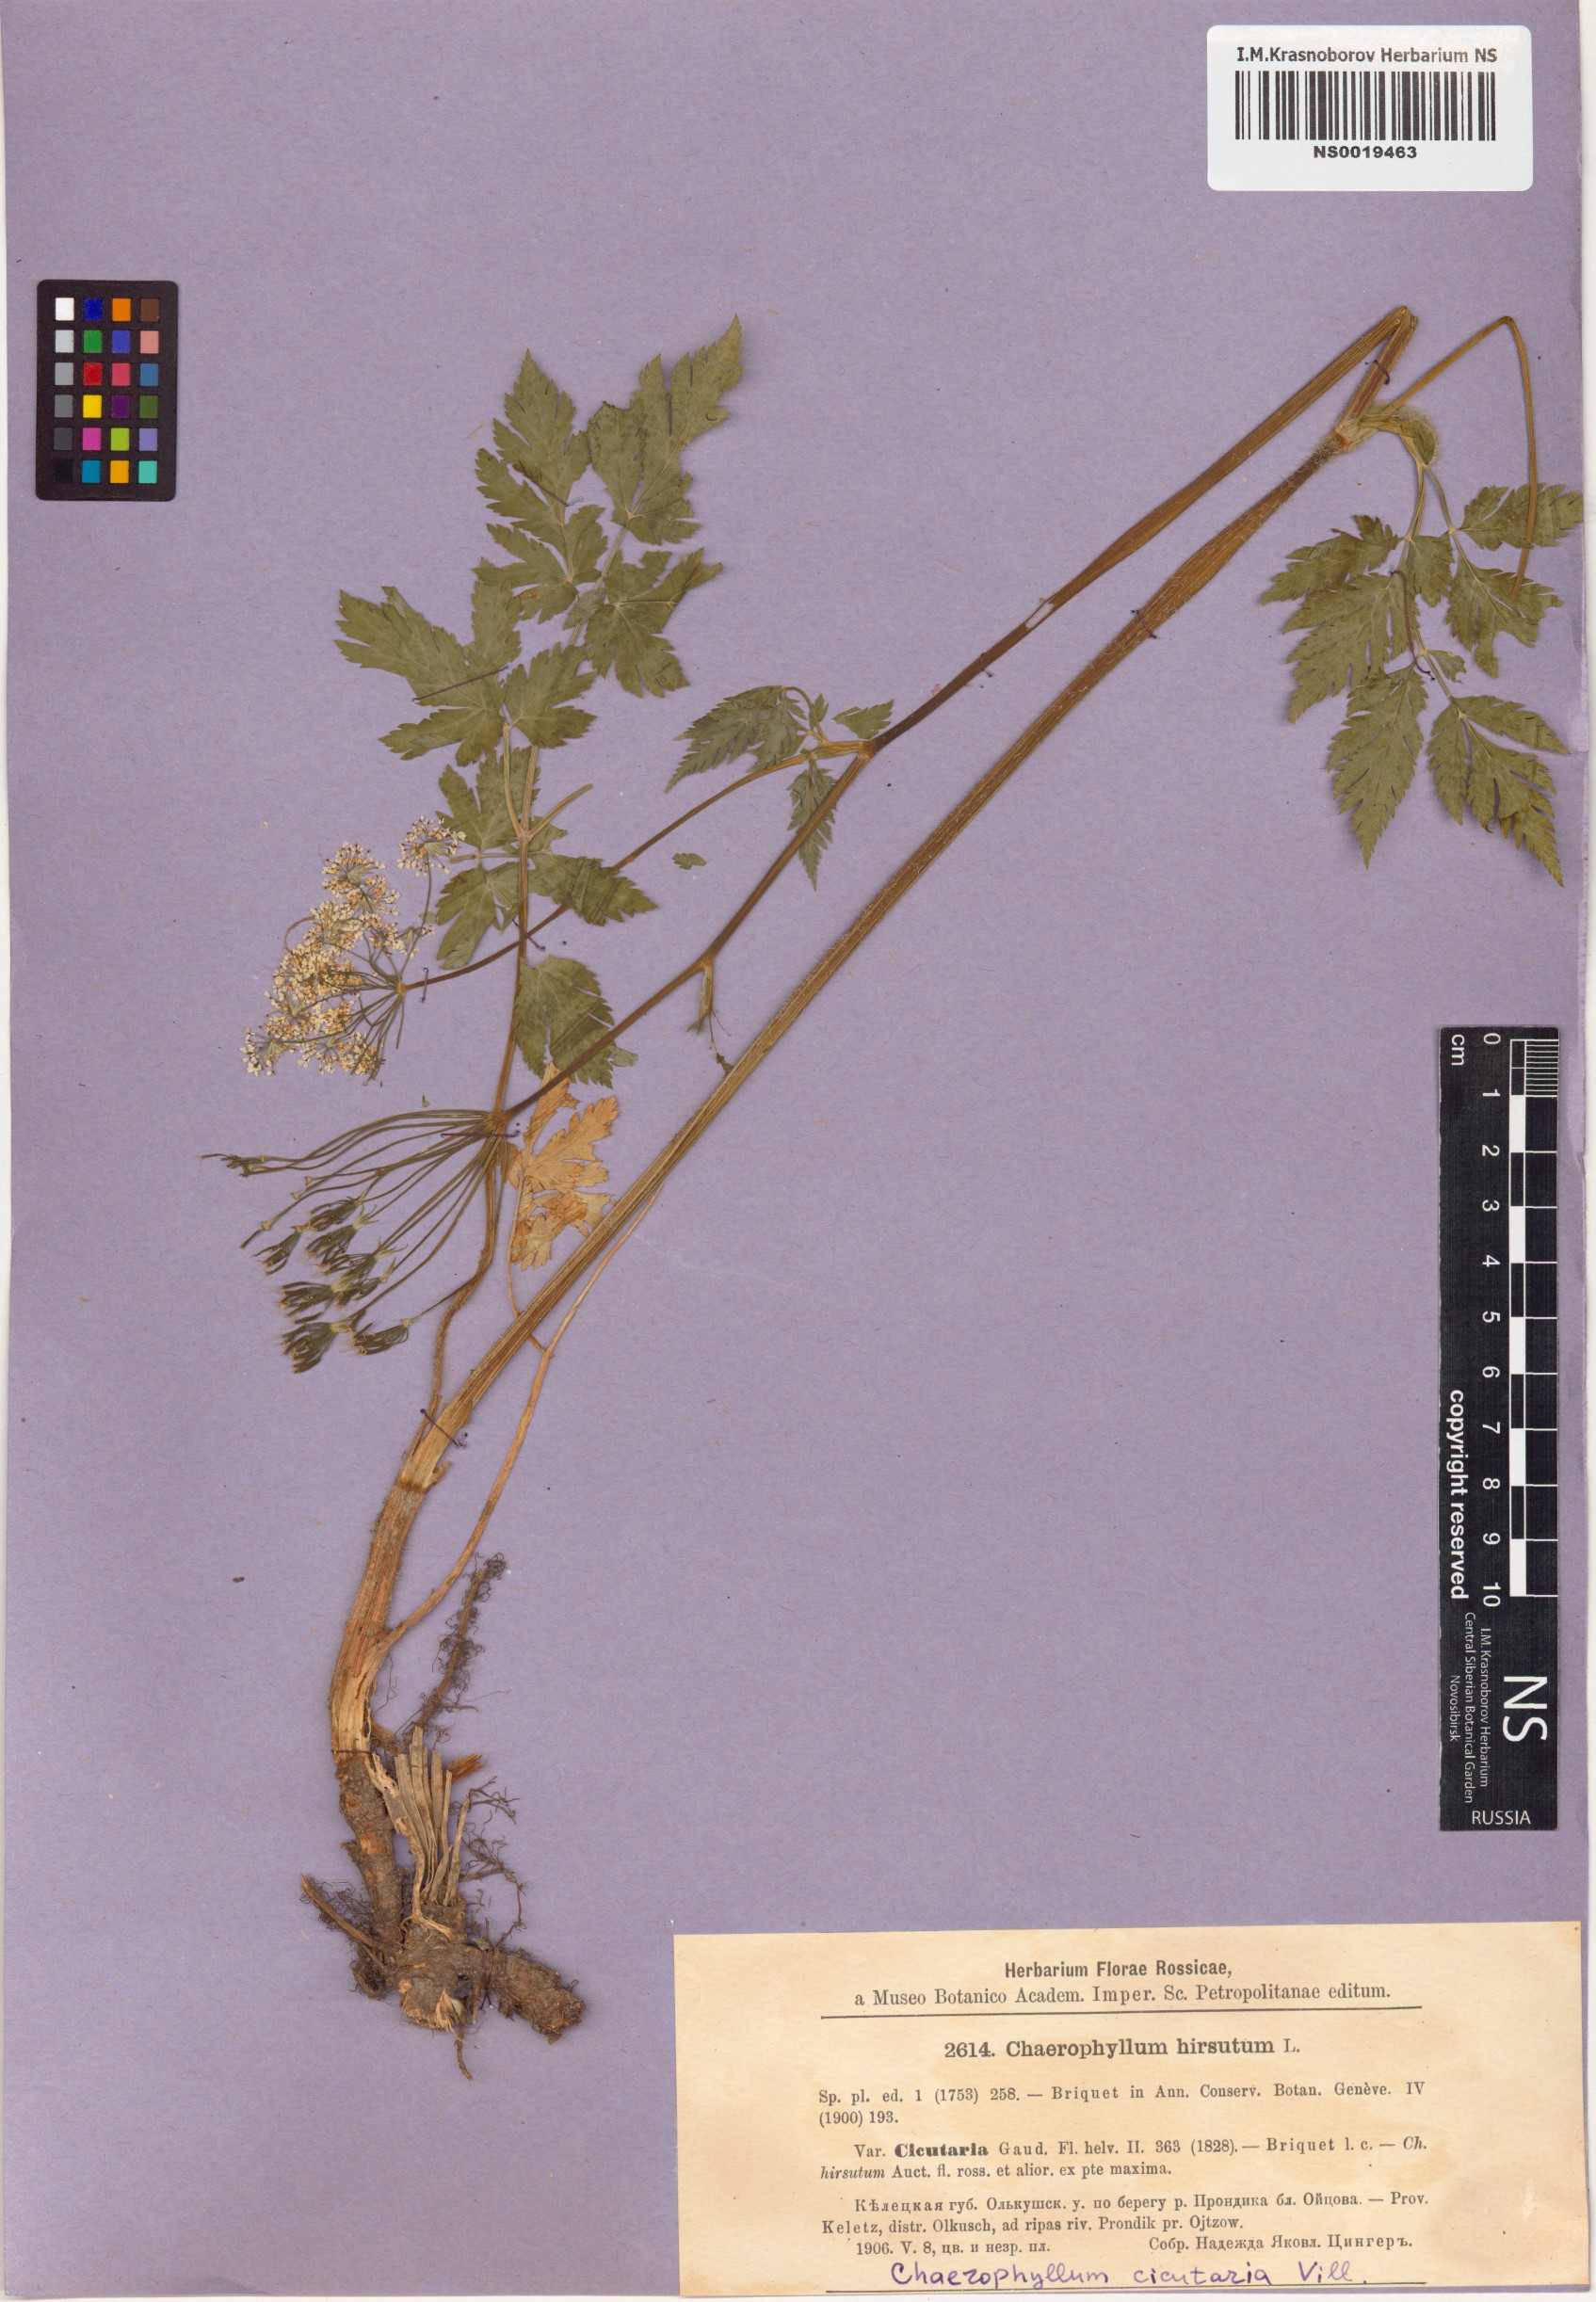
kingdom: Plantae
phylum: Tracheophyta
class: Magnoliopsida
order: Apiales
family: Apiaceae
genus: Chaerophyllum
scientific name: Chaerophyllum hirsutum
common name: Hairy chervil
